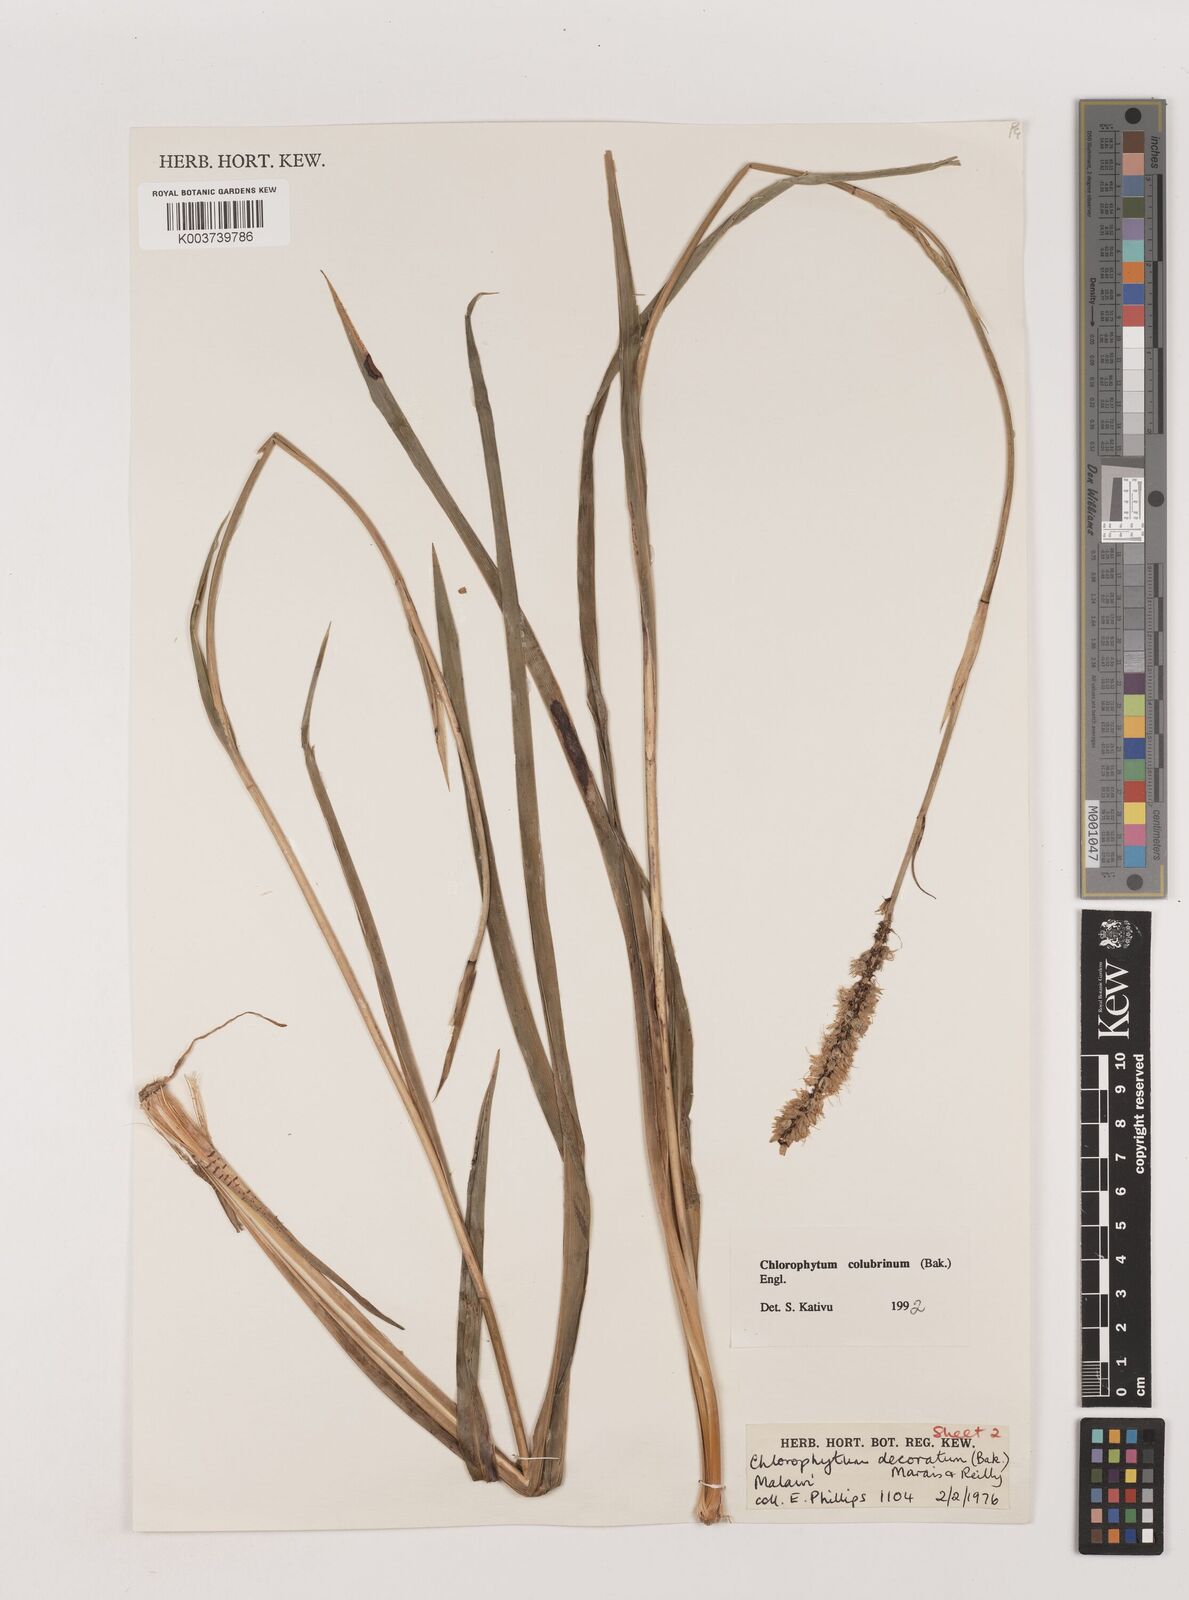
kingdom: Plantae
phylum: Tracheophyta
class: Liliopsida
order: Asparagales
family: Asparagaceae
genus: Chlorophytum
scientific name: Chlorophytum colubrinum
